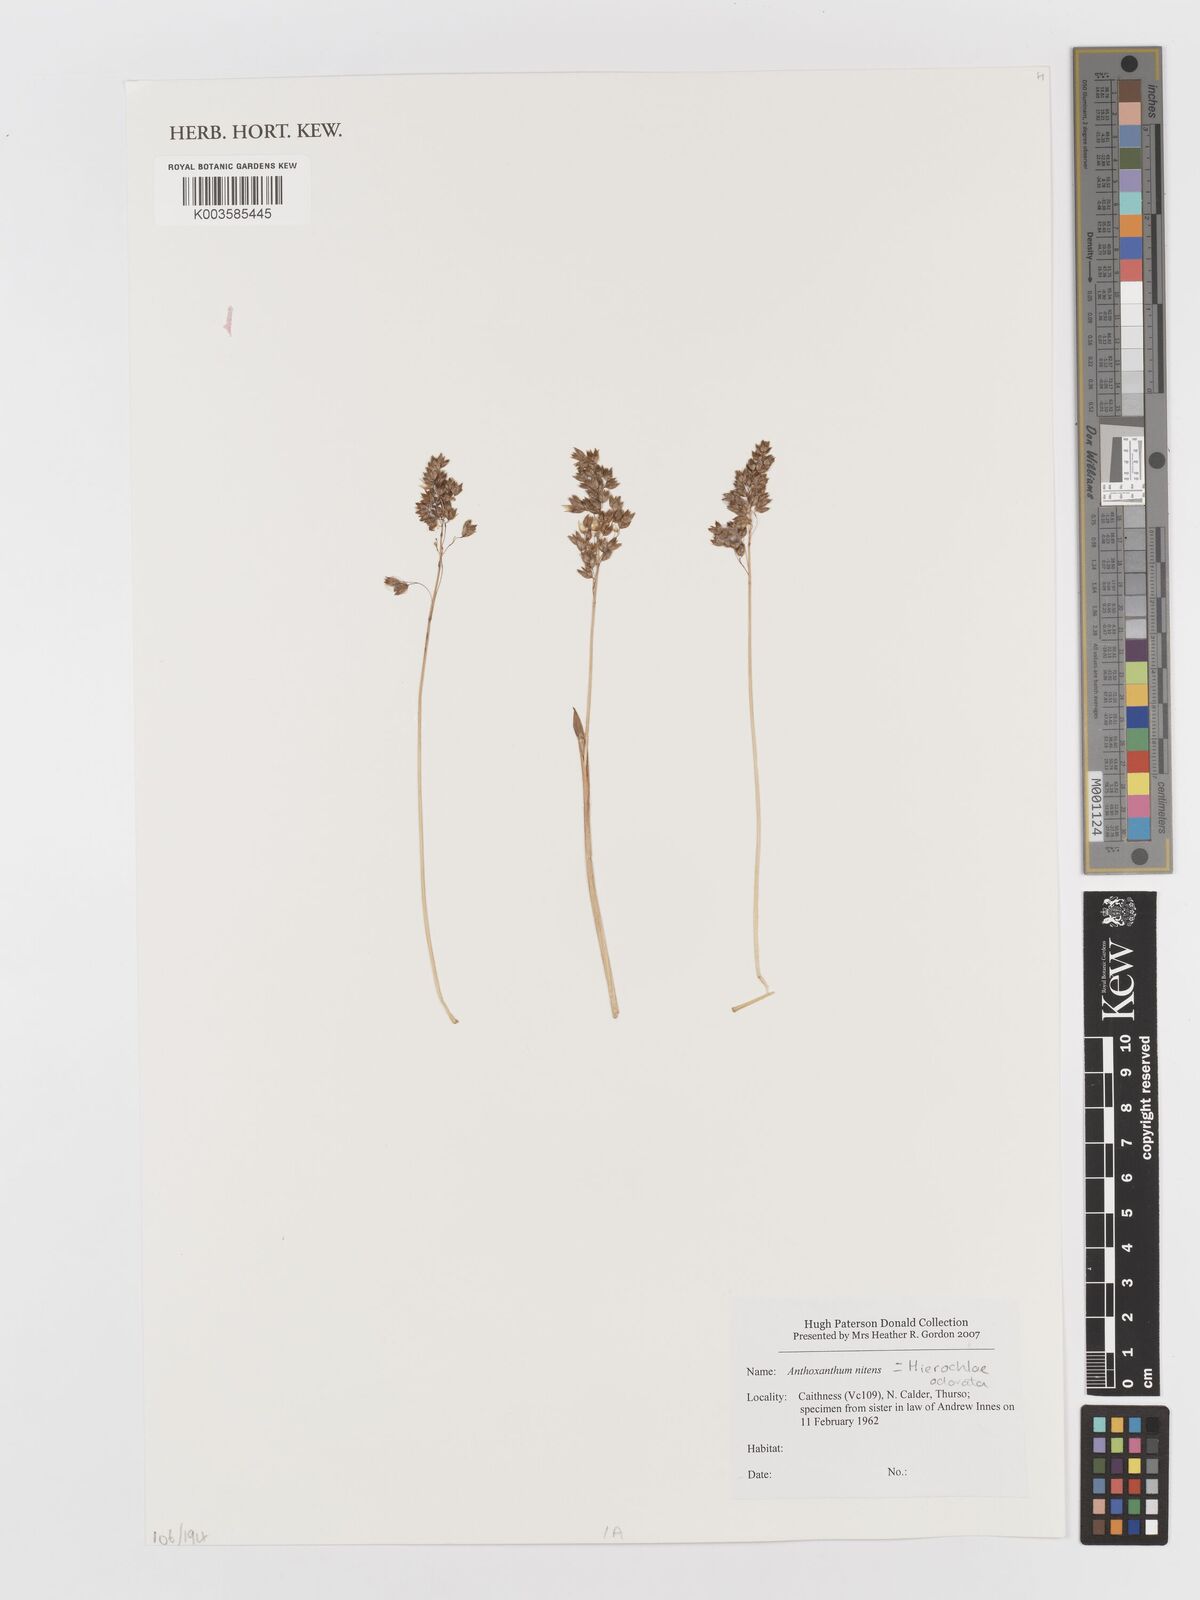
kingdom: Plantae
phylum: Tracheophyta
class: Liliopsida
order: Poales
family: Poaceae
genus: Anthoxanthum
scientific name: Anthoxanthum nitens
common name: Holy grass
